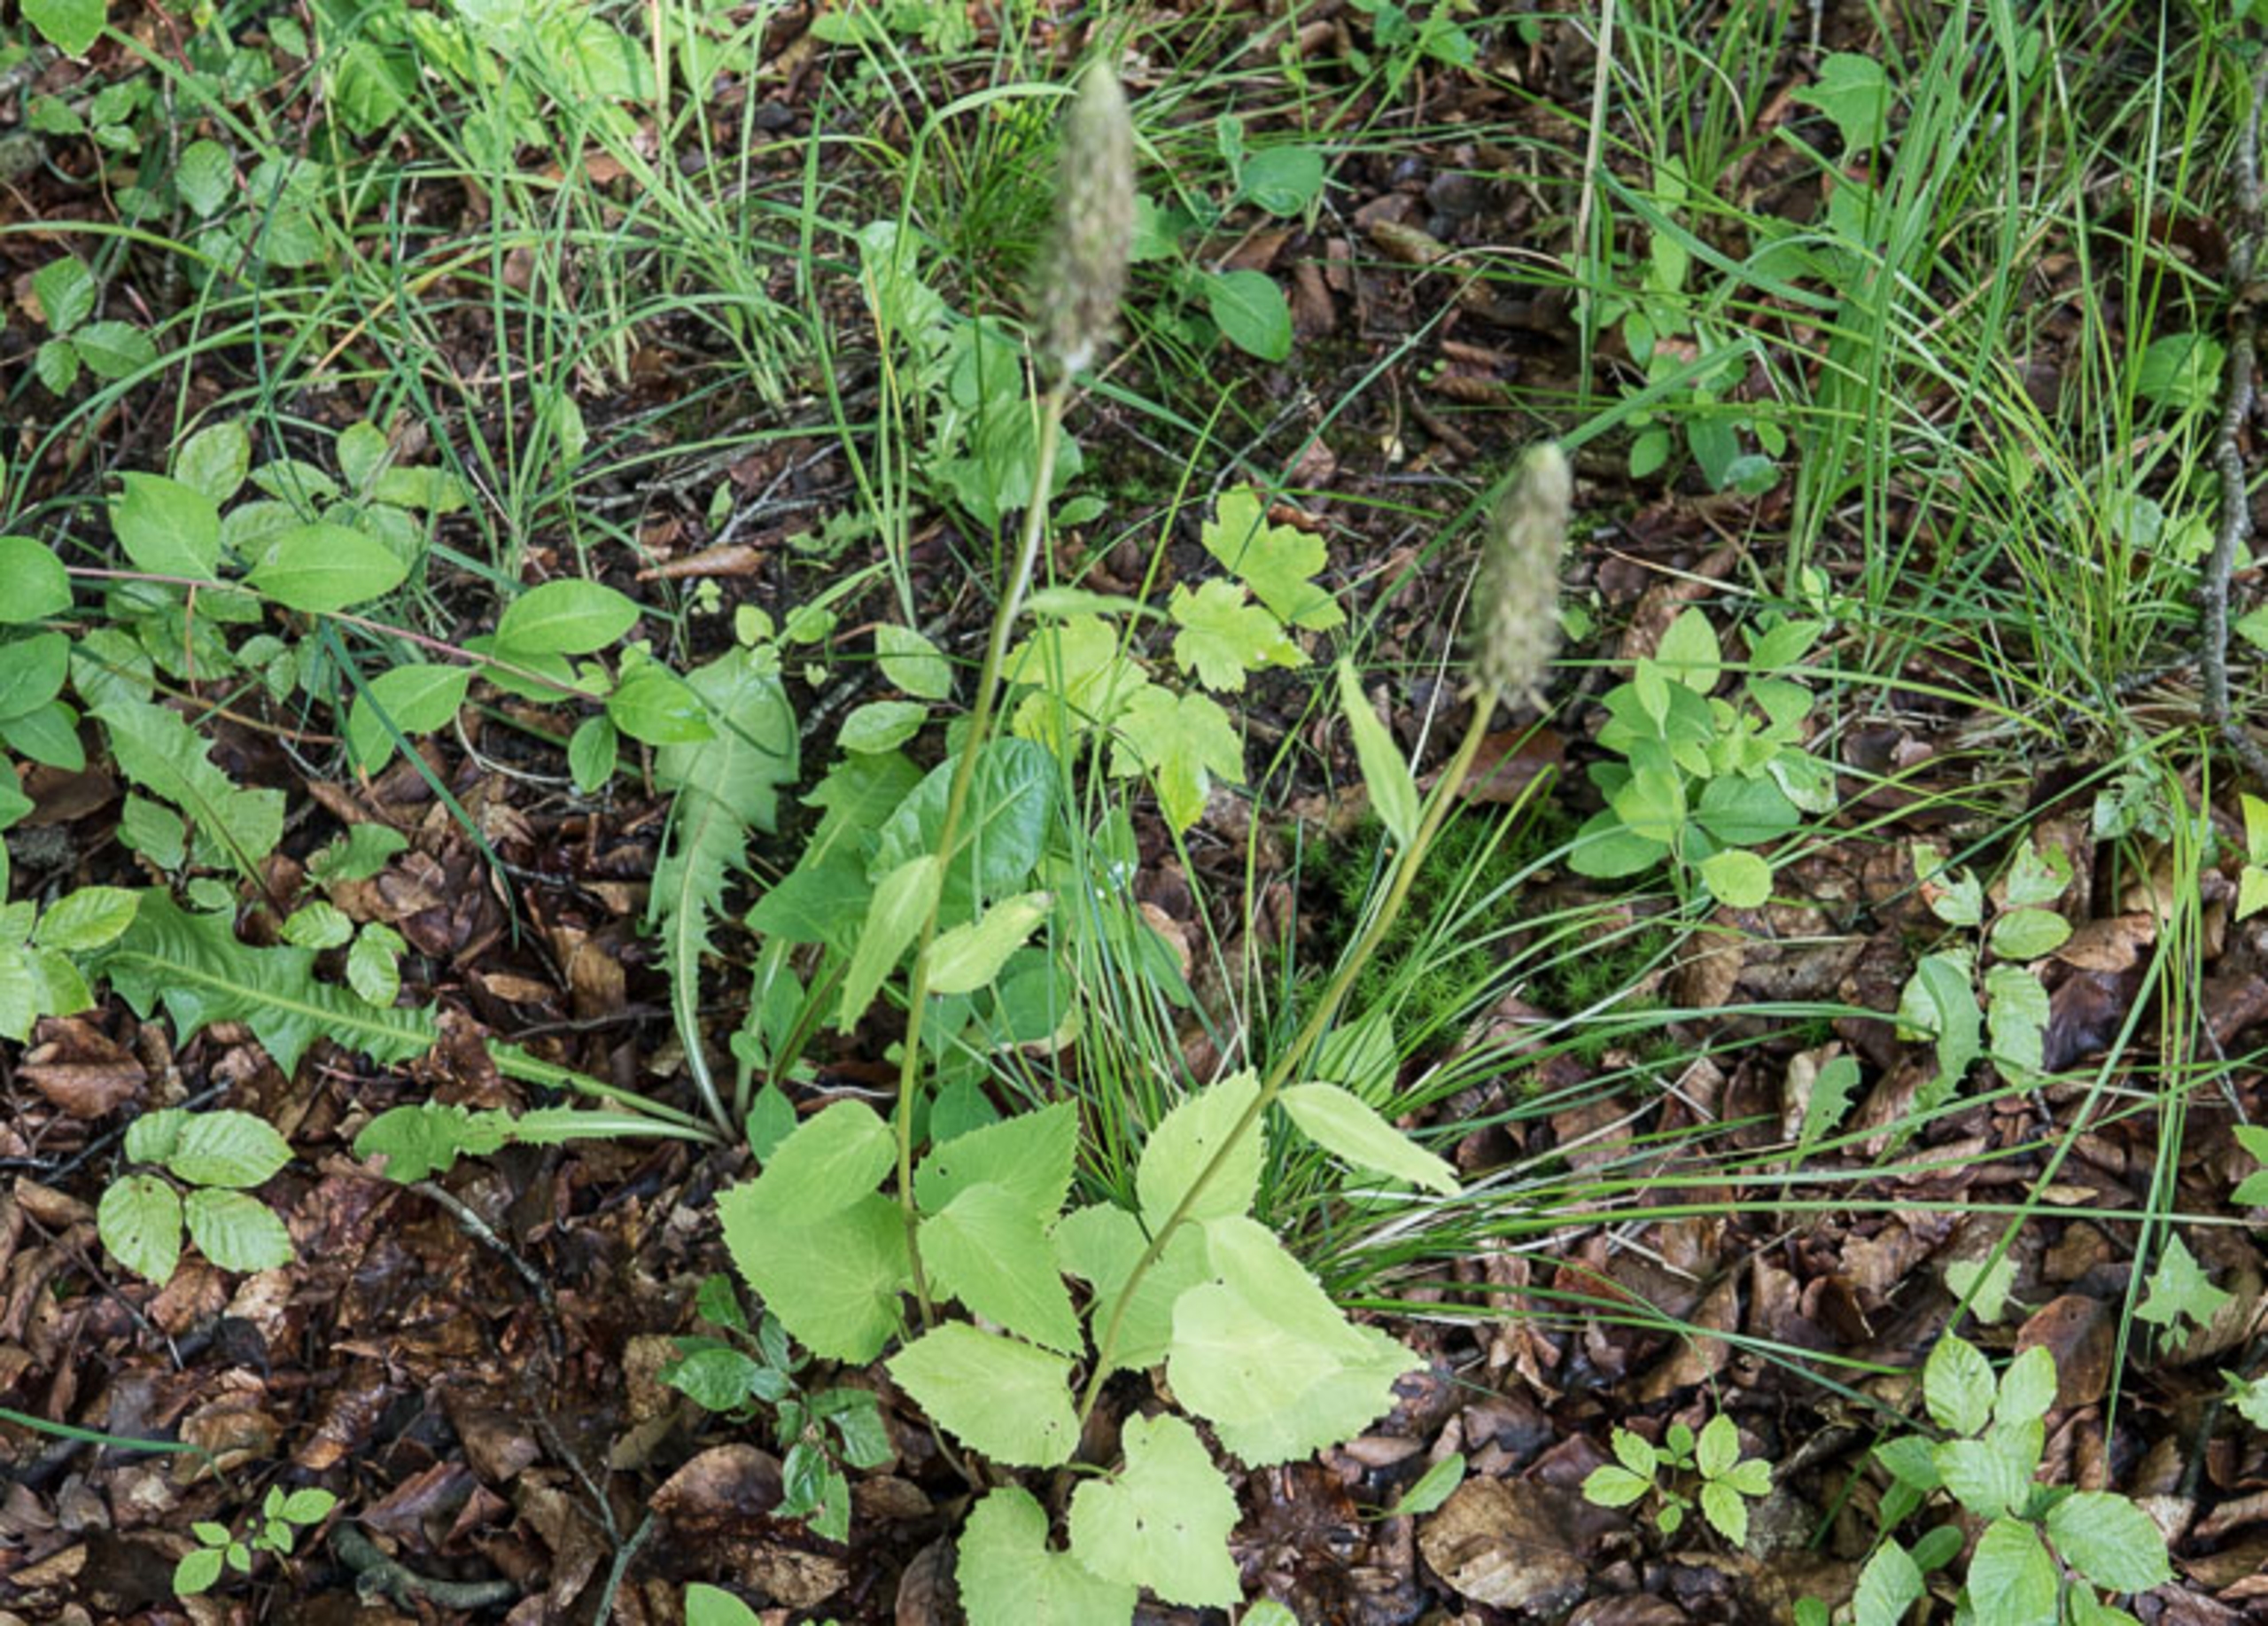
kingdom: Plantae
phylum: Tracheophyta
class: Magnoliopsida
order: Asterales
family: Campanulaceae
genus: Phyteuma
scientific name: Phyteuma spicatum
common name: Aks-rapunsel
